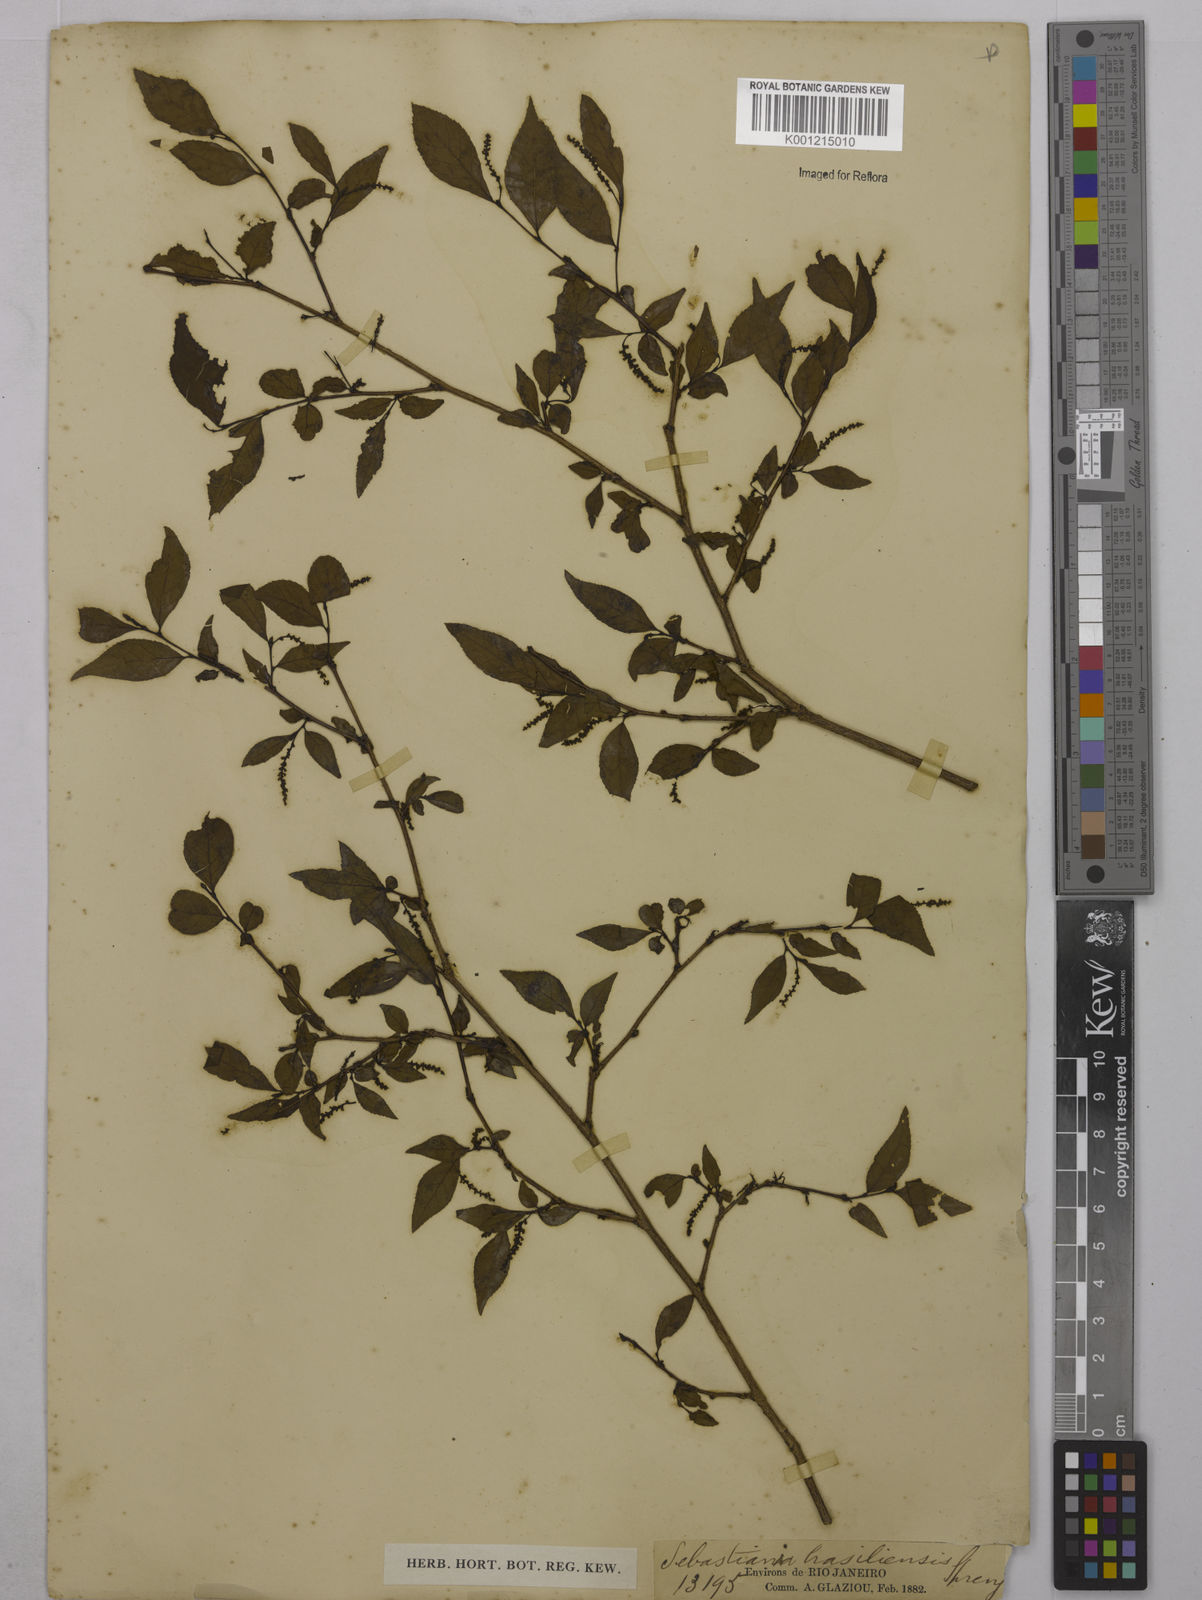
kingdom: Plantae
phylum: Tracheophyta
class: Magnoliopsida
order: Malpighiales
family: Euphorbiaceae
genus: Sebastiania
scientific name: Sebastiania brasiliensis
